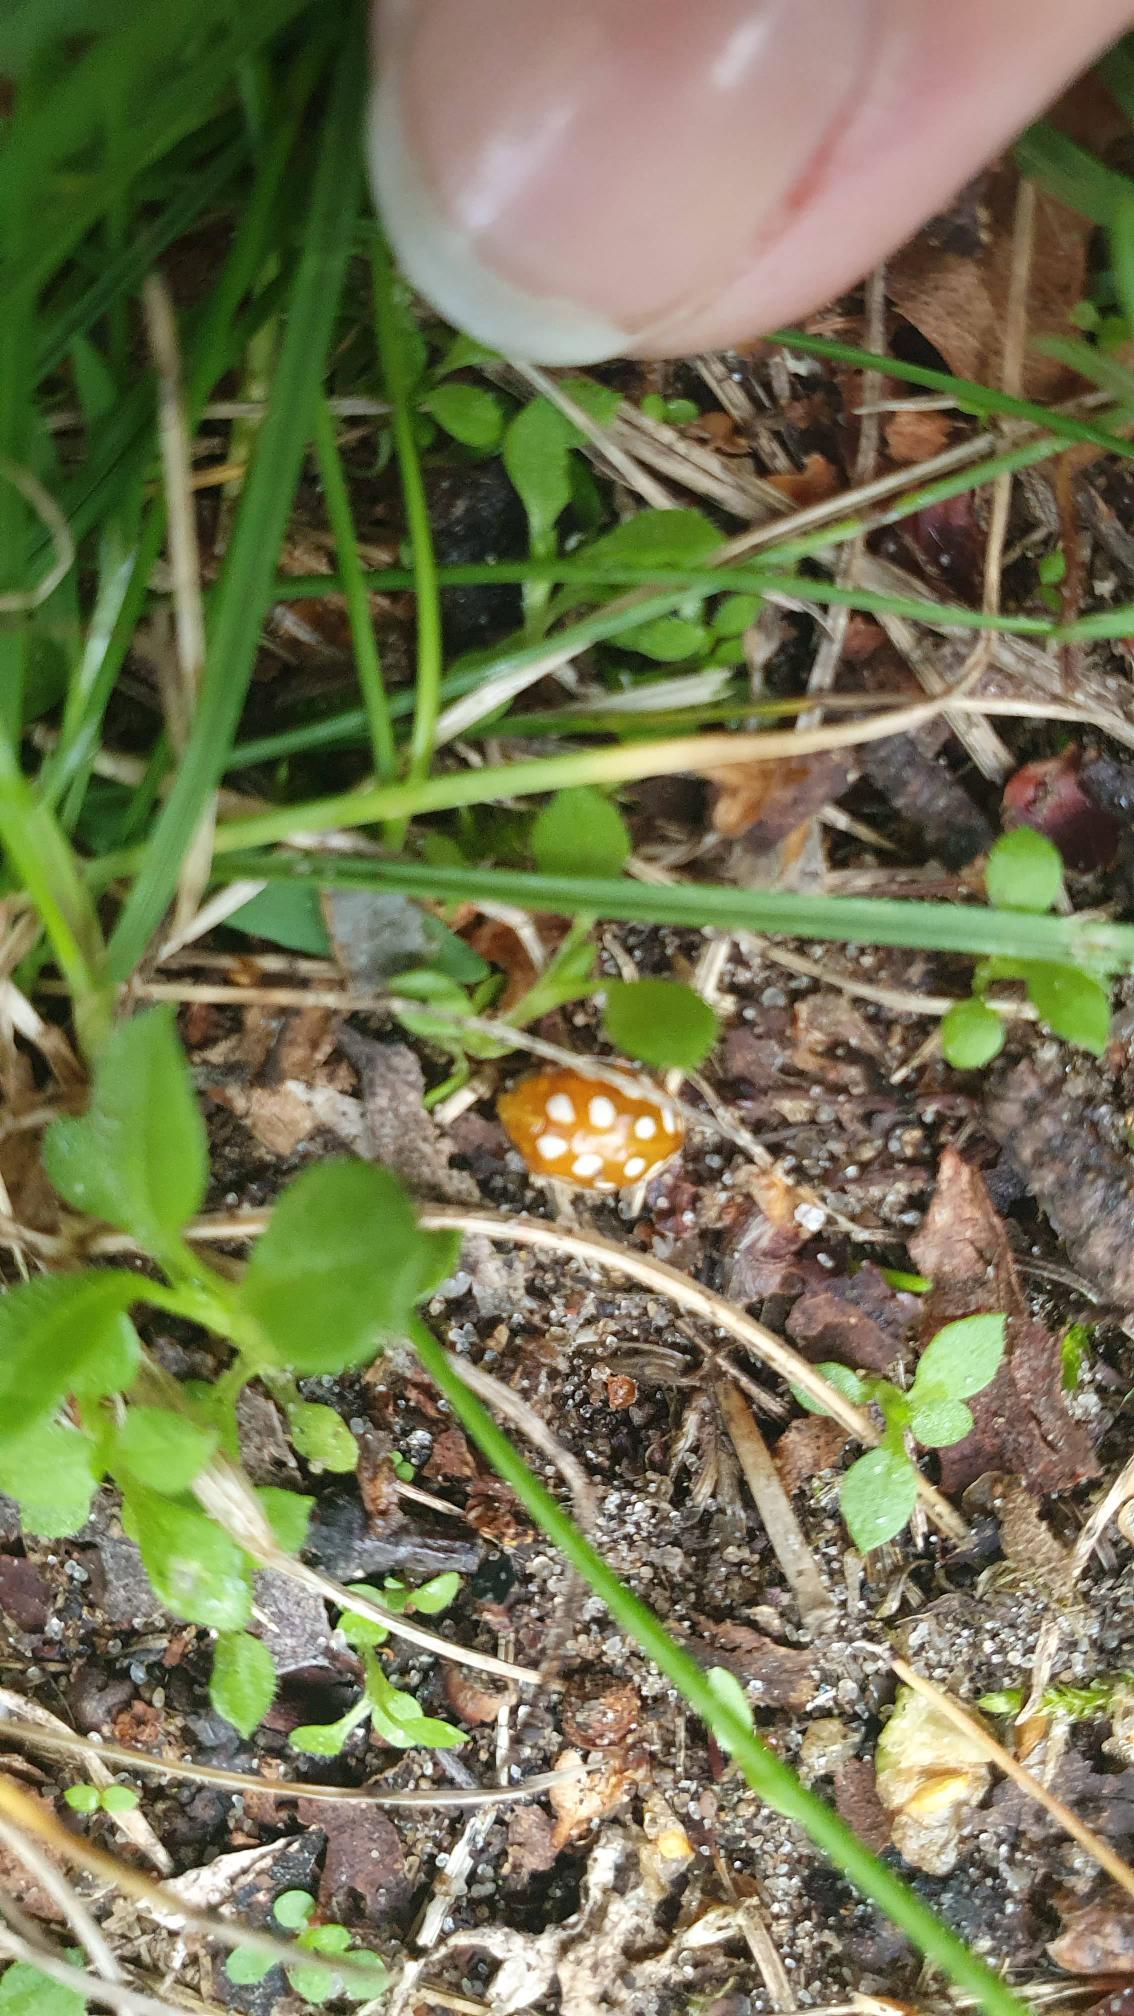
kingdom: Animalia
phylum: Arthropoda
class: Insecta
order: Coleoptera
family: Coccinellidae
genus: Halyzia
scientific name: Halyzia sedecimguttata
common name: Sekstenplettet mariehøne
